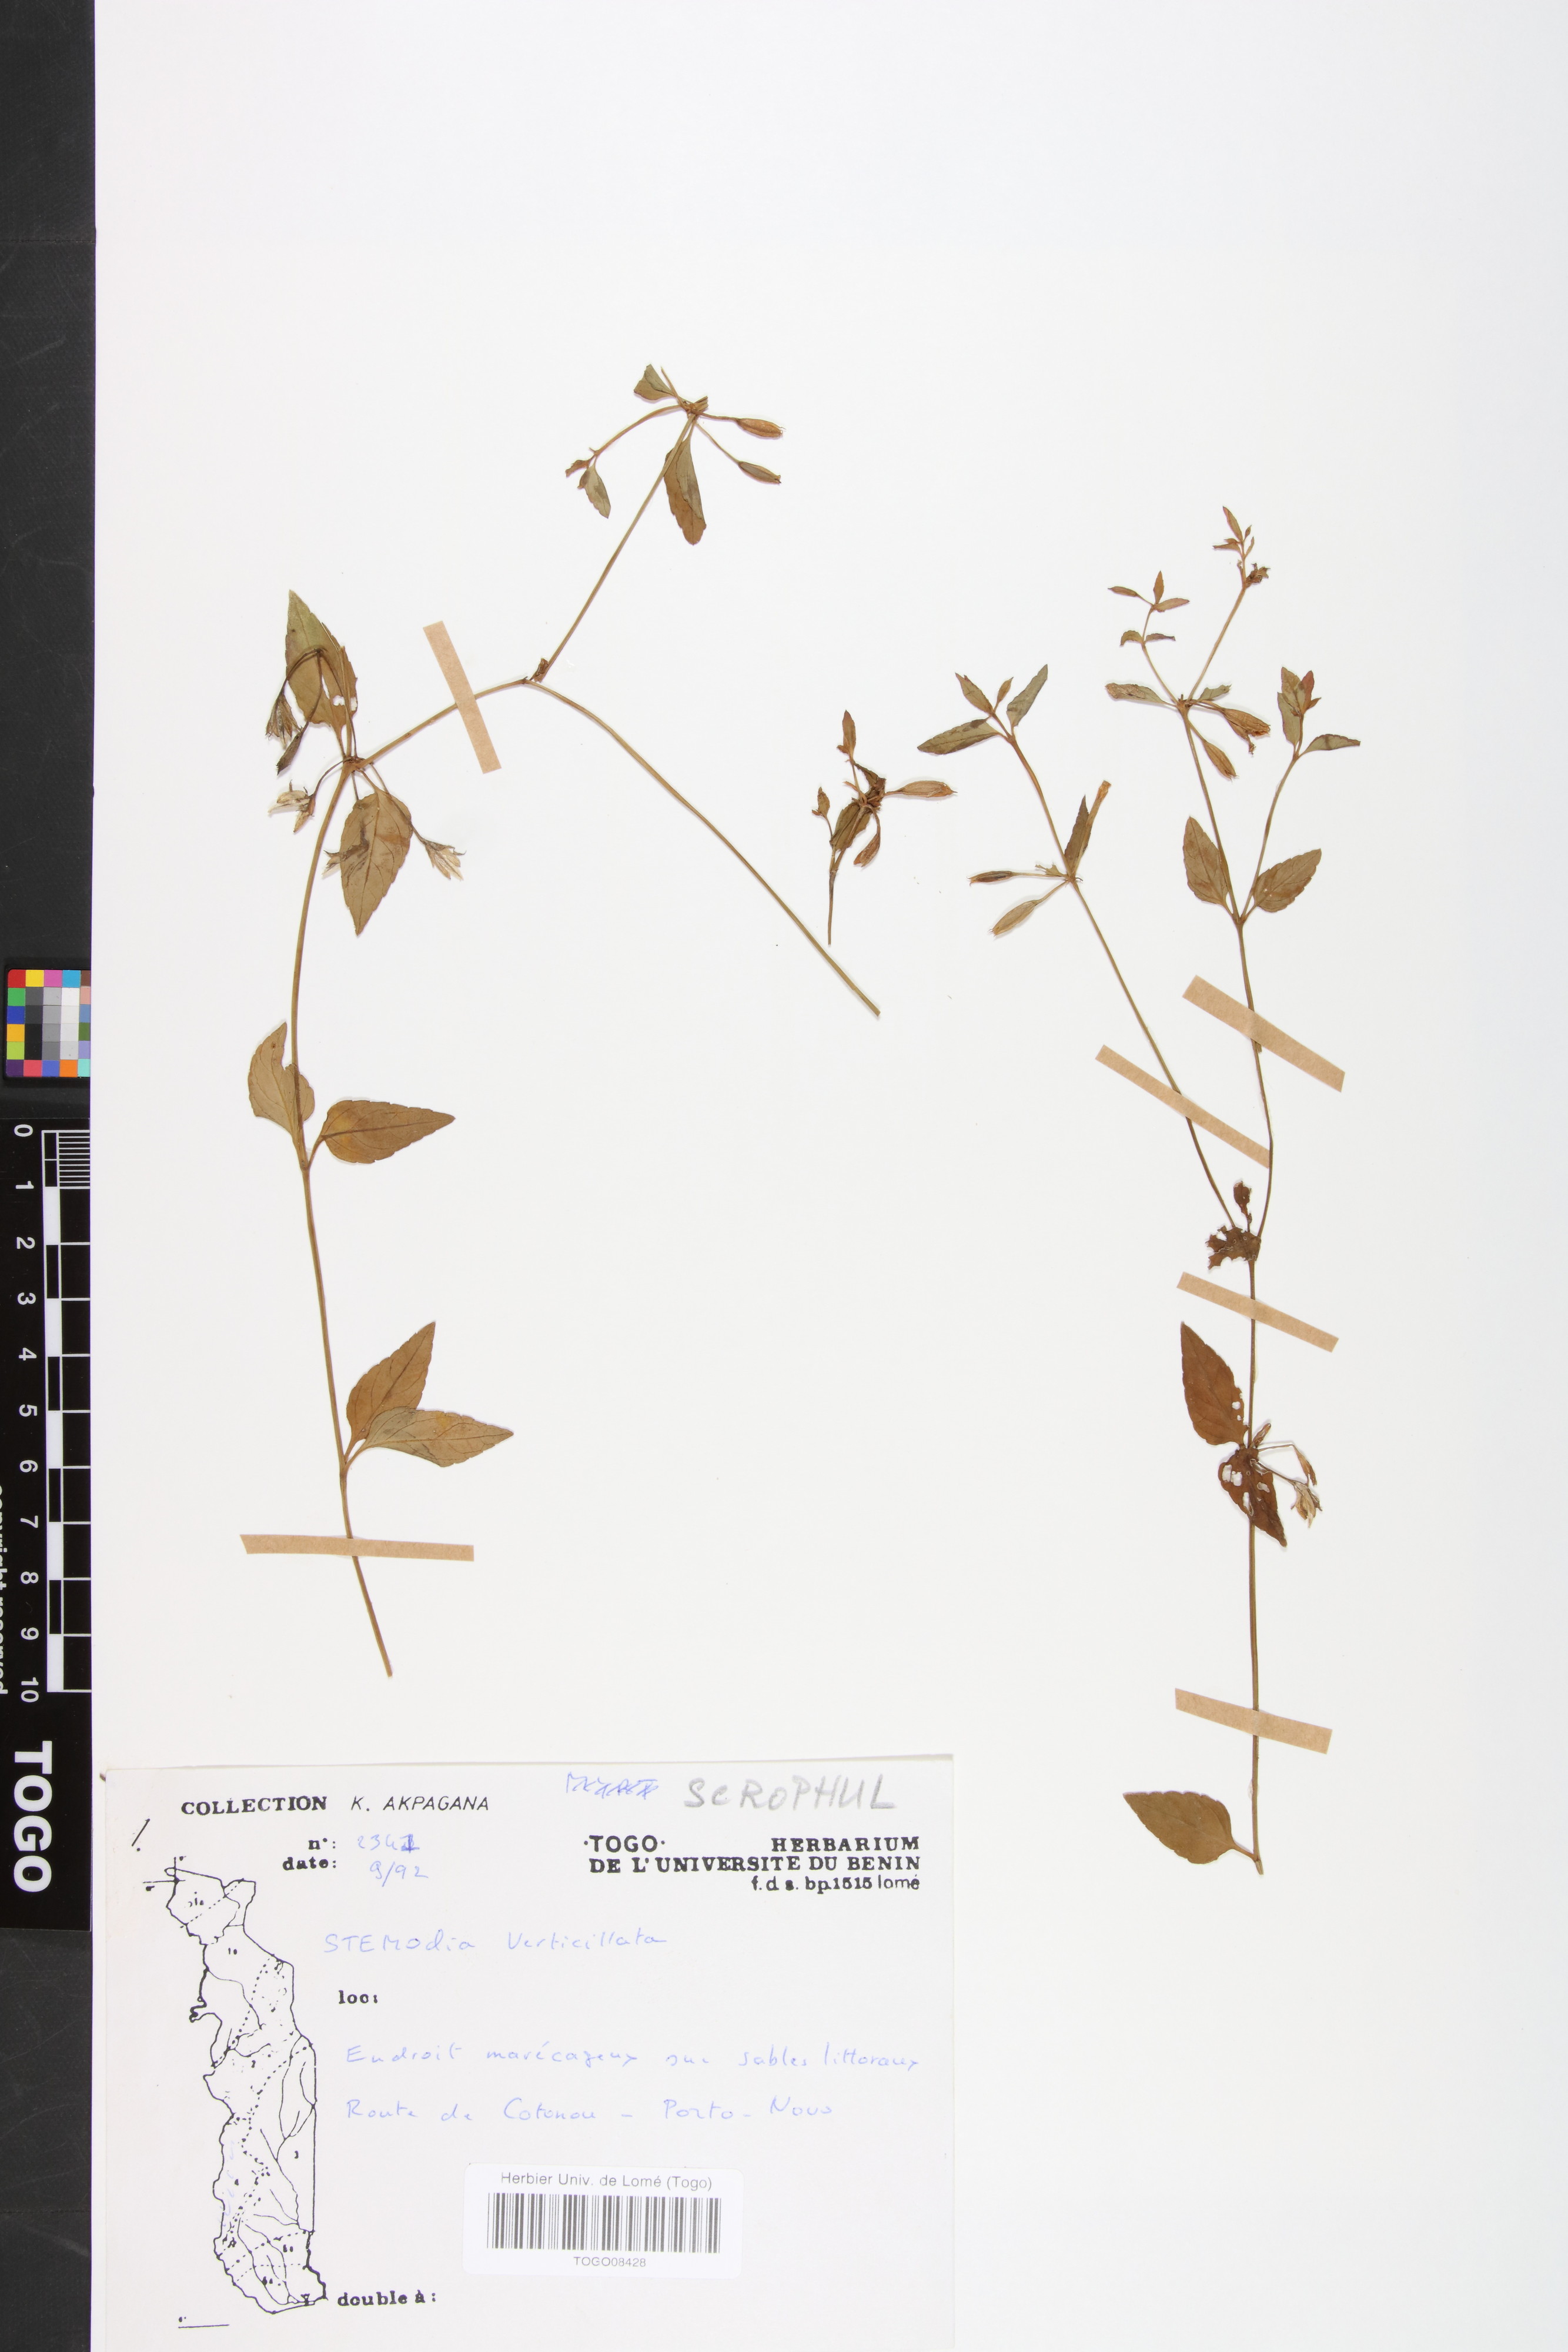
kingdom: Plantae
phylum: Tracheophyta
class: Magnoliopsida
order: Lamiales
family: Plantaginaceae
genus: Stemodia
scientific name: Stemodia verticillata
